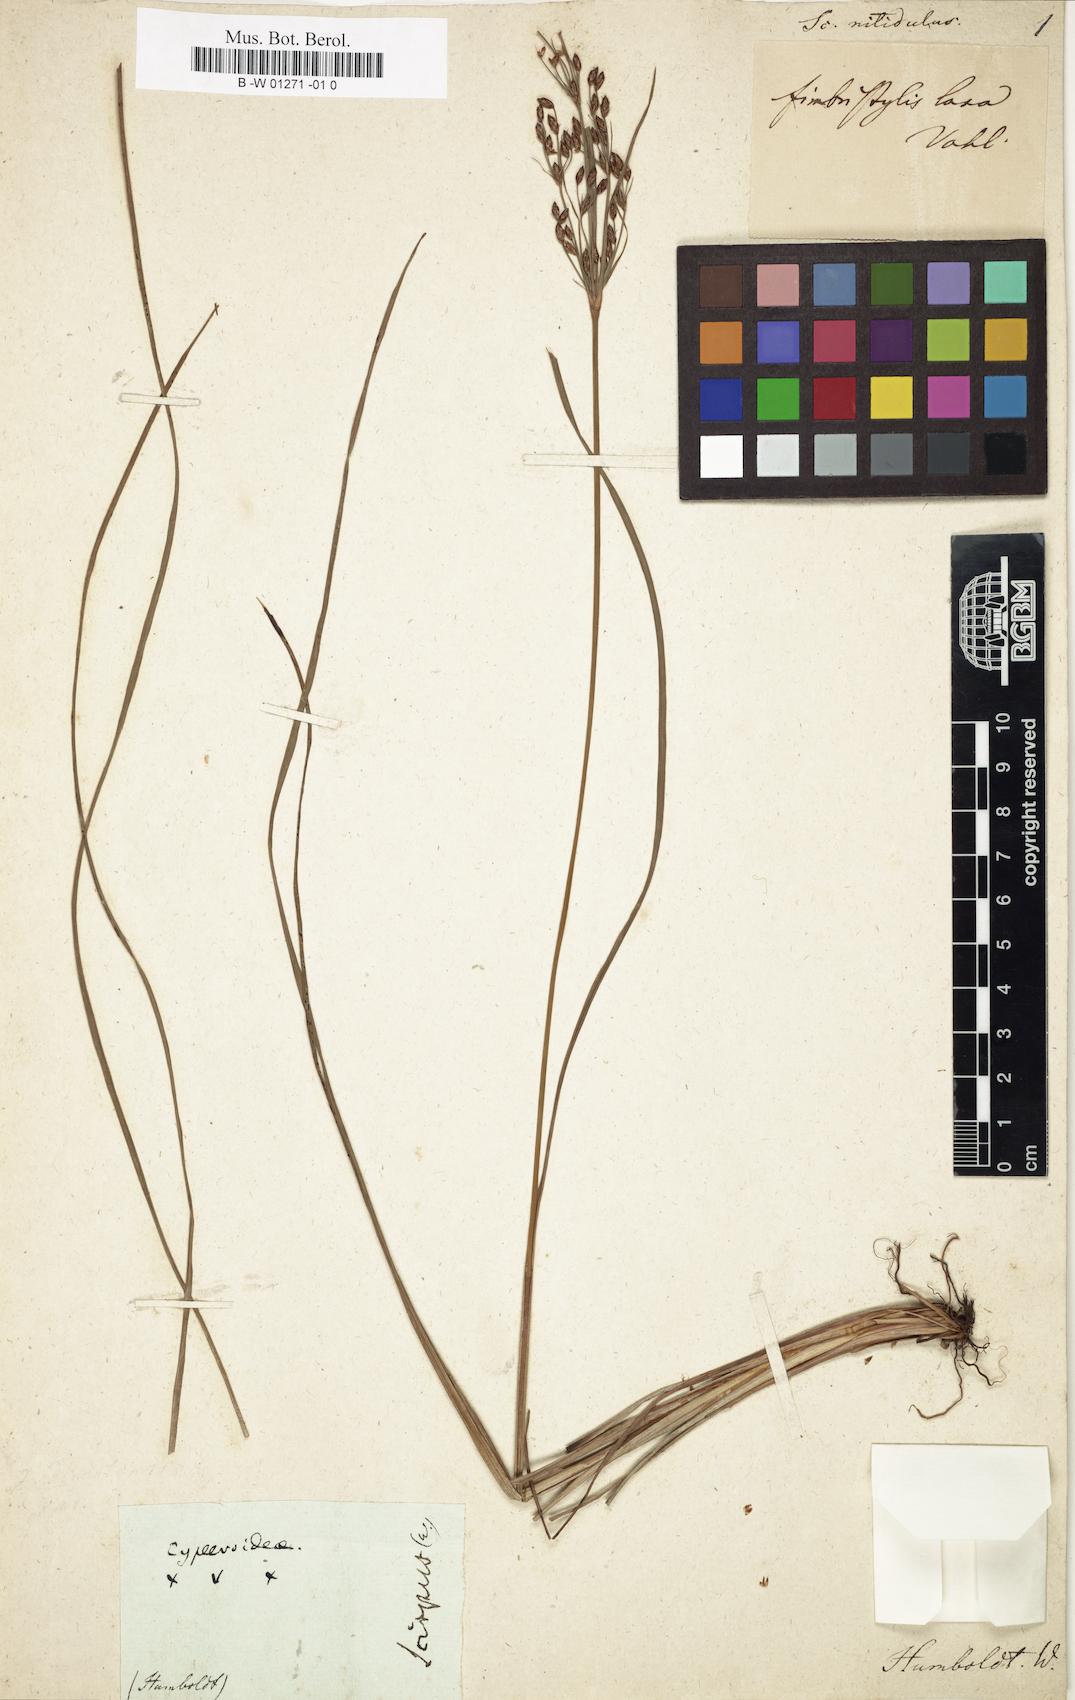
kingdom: Plantae
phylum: Tracheophyta
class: Liliopsida
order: Poales
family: Cyperaceae
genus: Fimbristylis
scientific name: Fimbristylis dichotoma
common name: Forked fimbry
